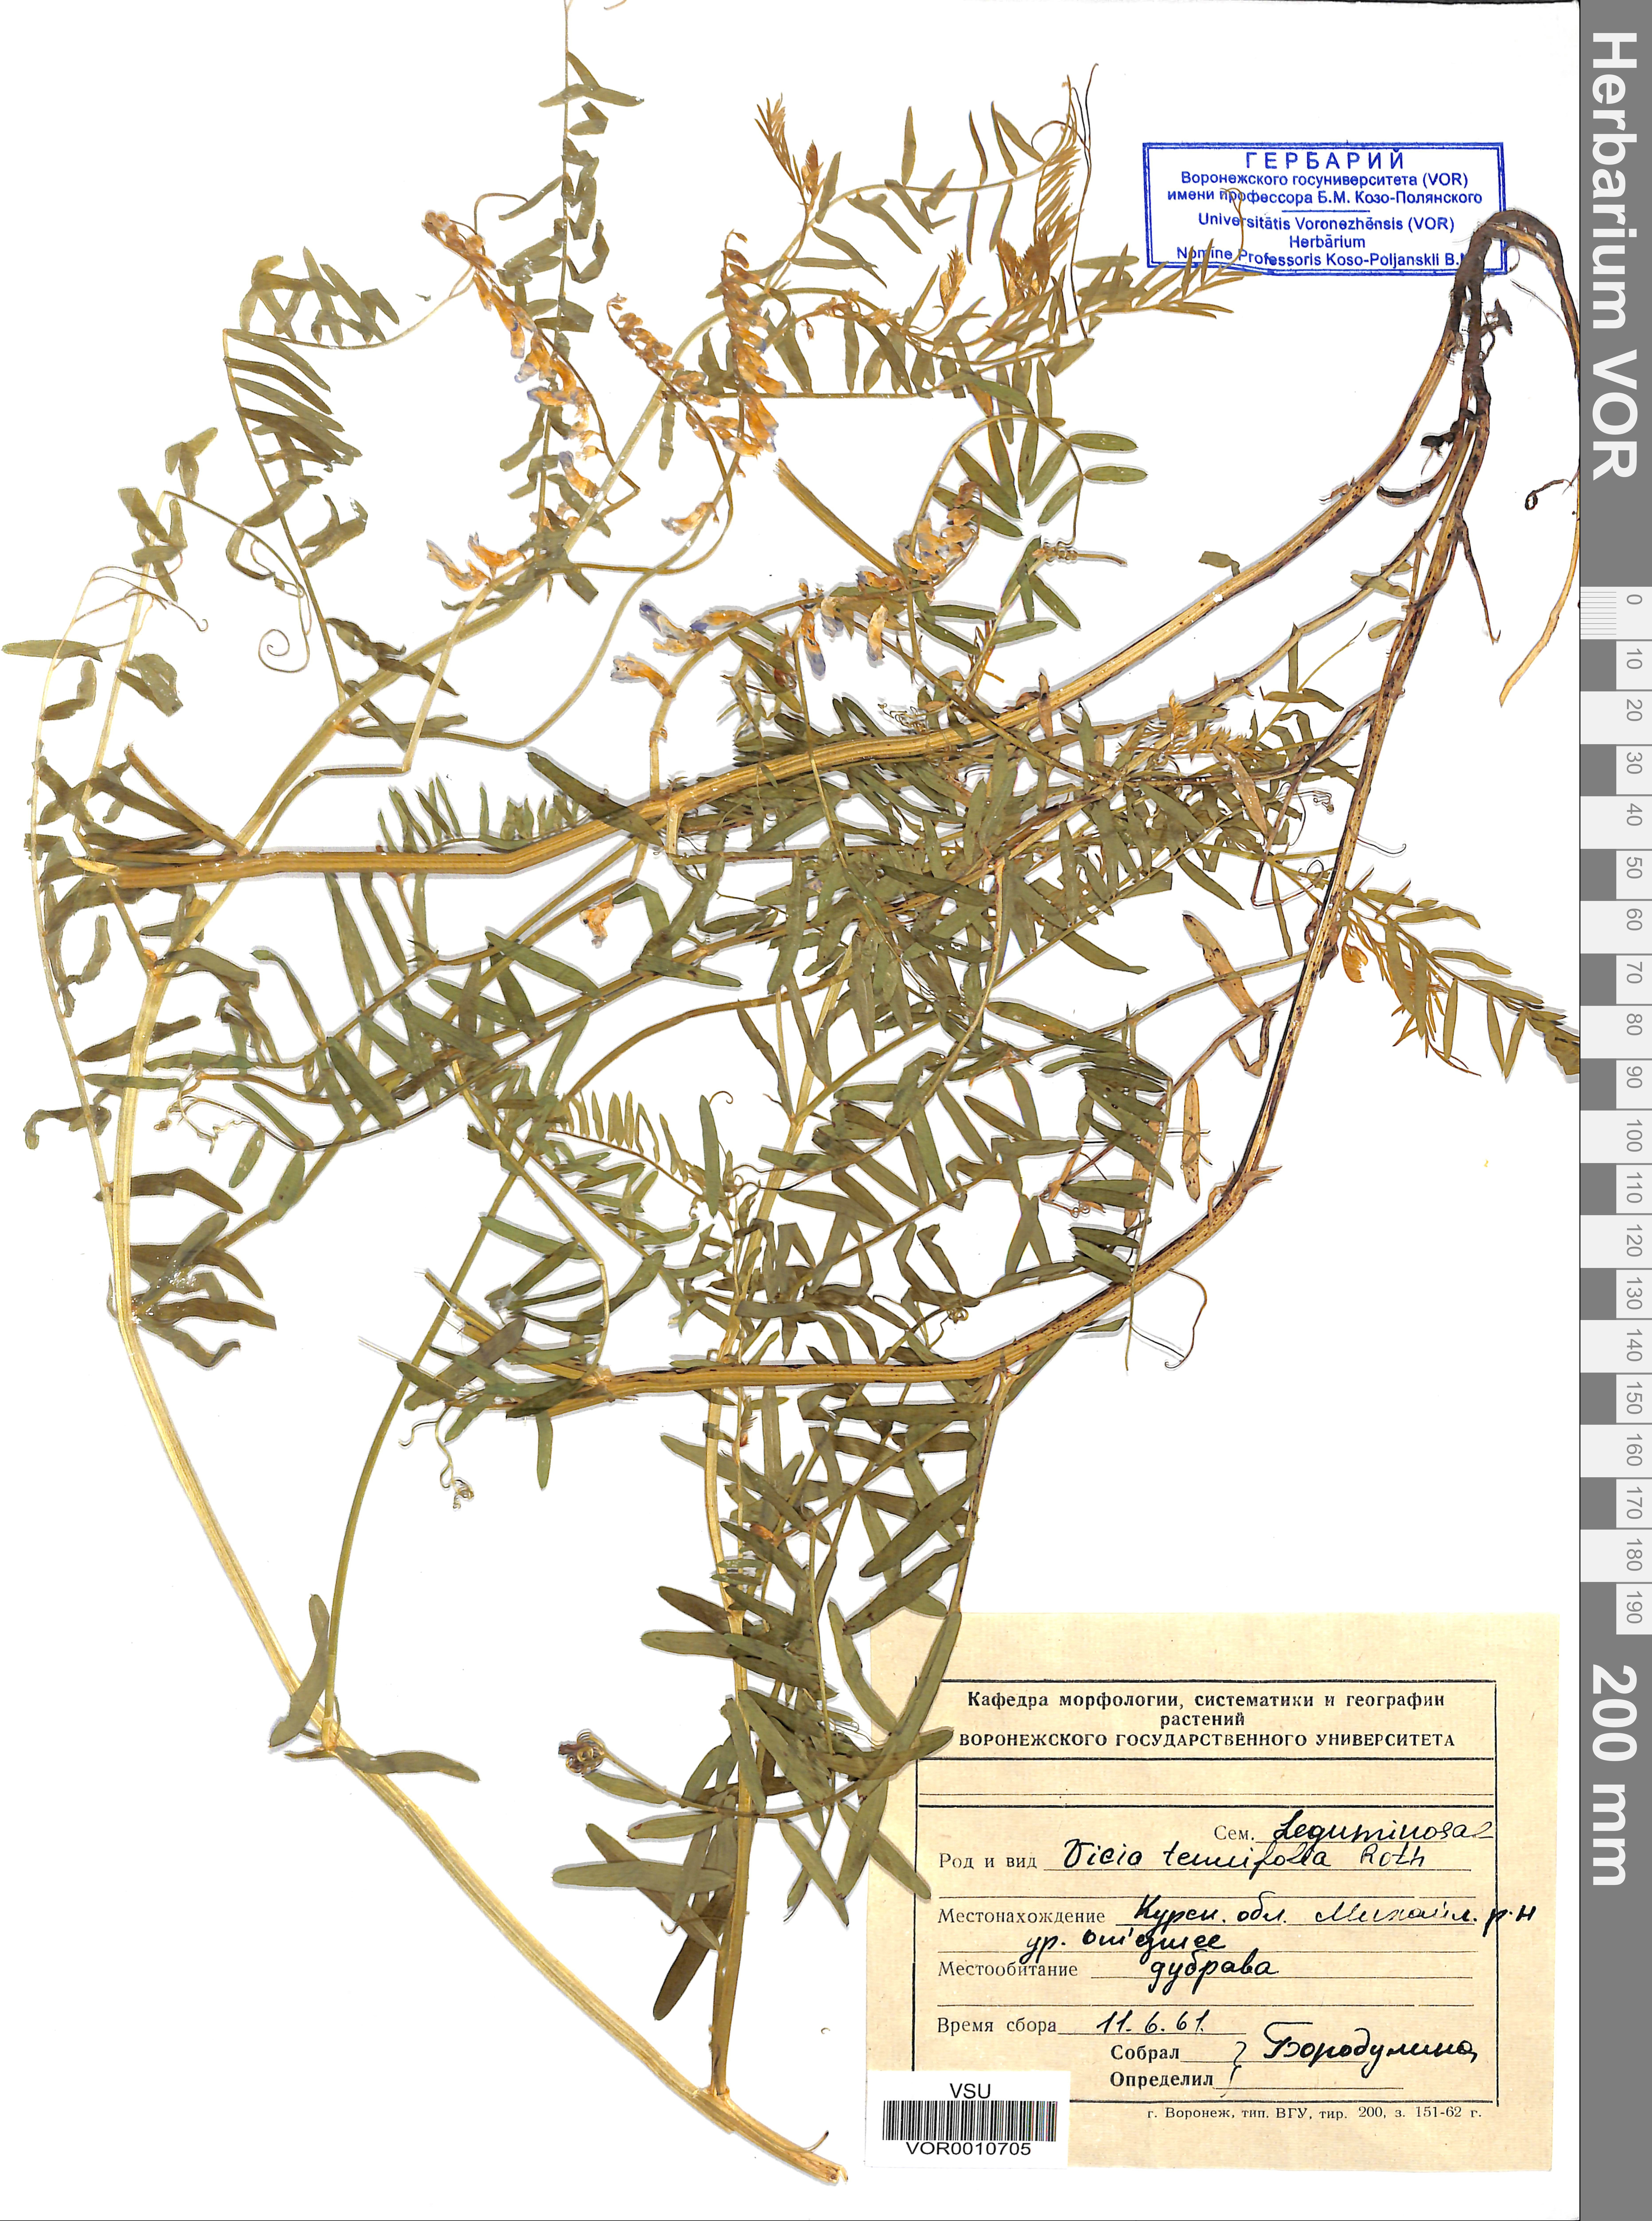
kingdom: Plantae
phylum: Tracheophyta
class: Magnoliopsida
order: Fabales
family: Fabaceae
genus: Vicia
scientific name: Vicia tenuifolia
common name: Fine-leaved vetch
